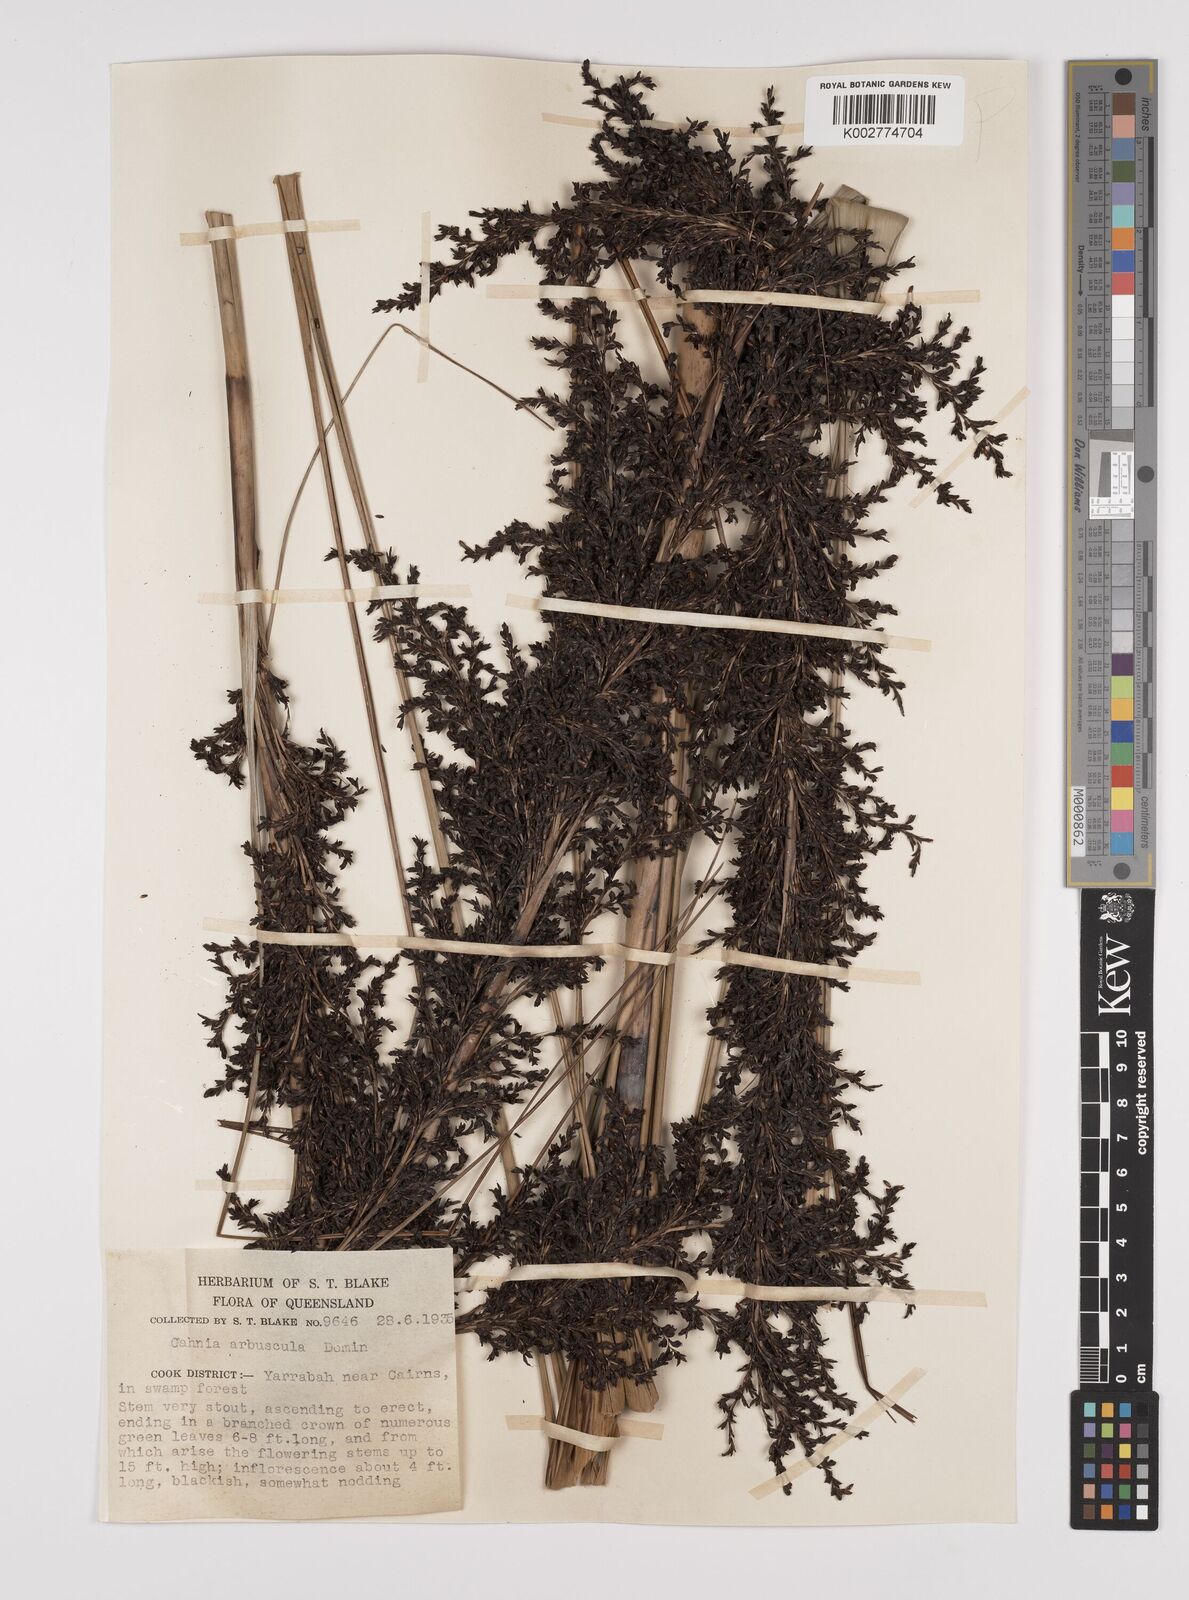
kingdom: Plantae
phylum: Tracheophyta
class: Liliopsida
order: Poales
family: Cyperaceae
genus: Gahnia
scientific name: Gahnia sieberiana
